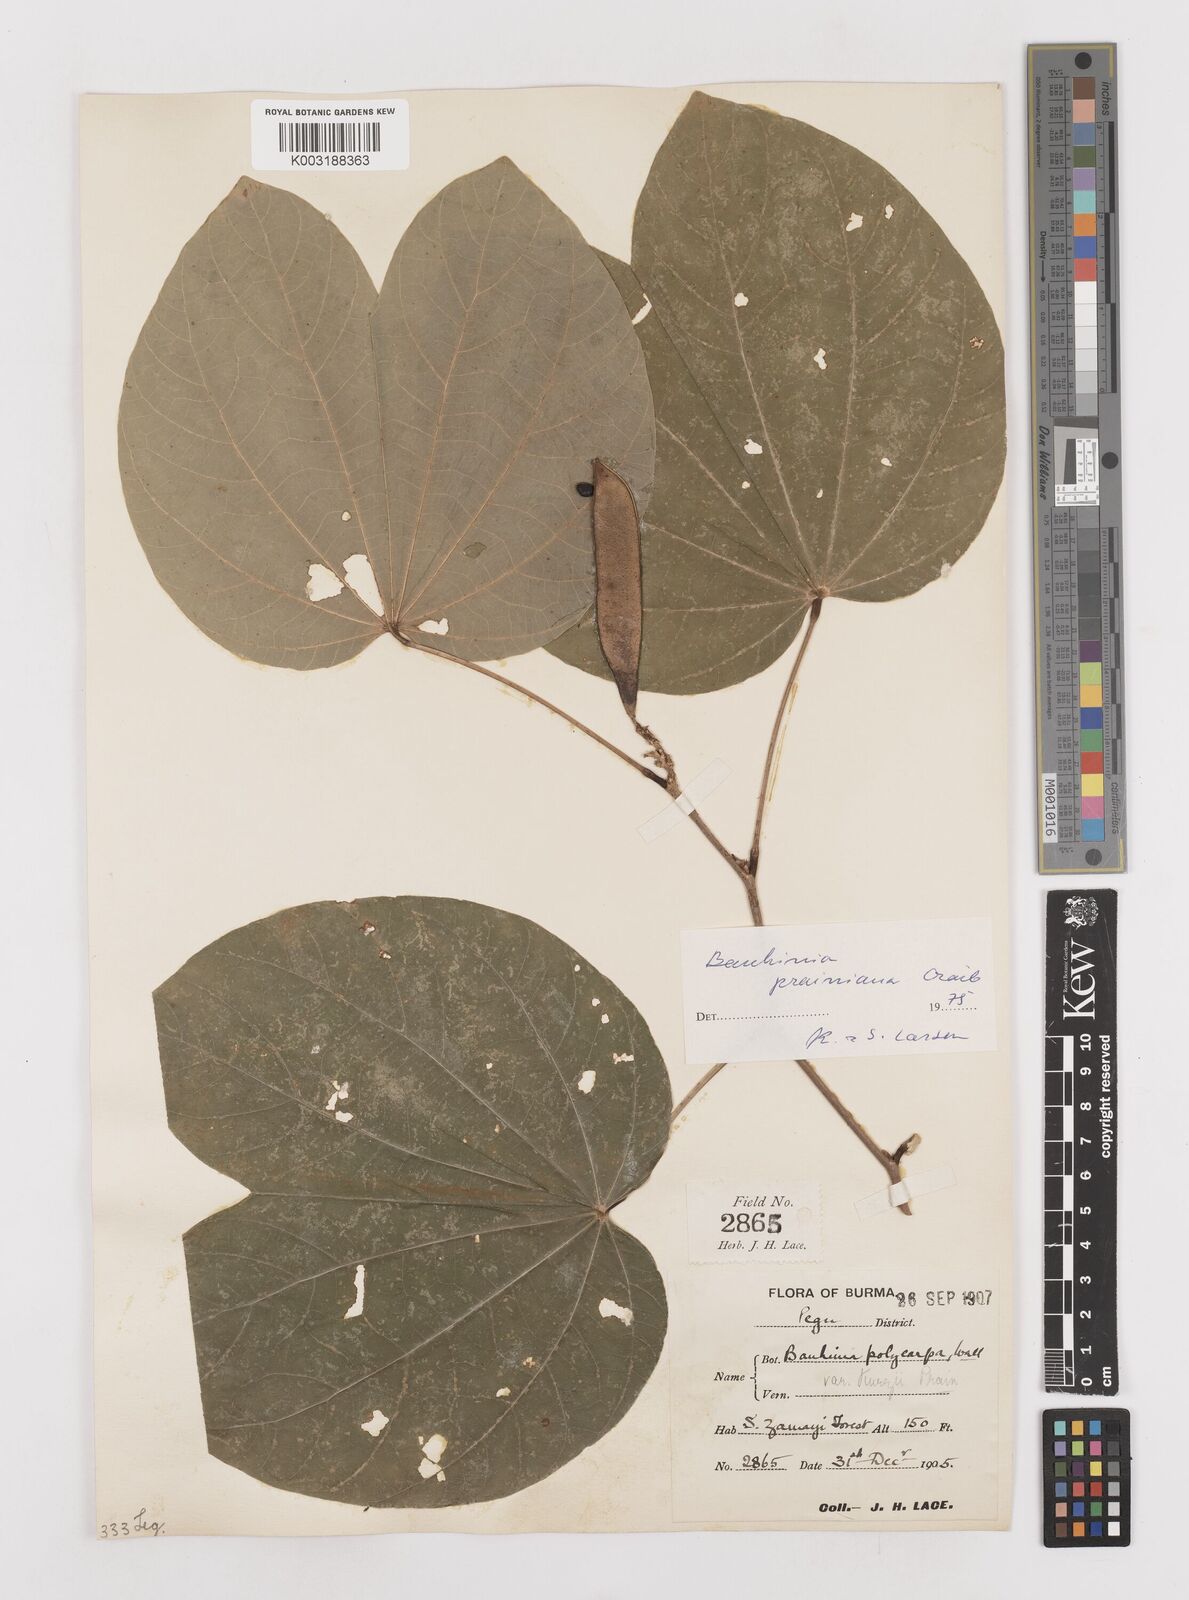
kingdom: Plantae
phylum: Tracheophyta
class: Magnoliopsida
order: Fabales
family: Fabaceae
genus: Bauhinia
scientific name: Bauhinia prainiana
